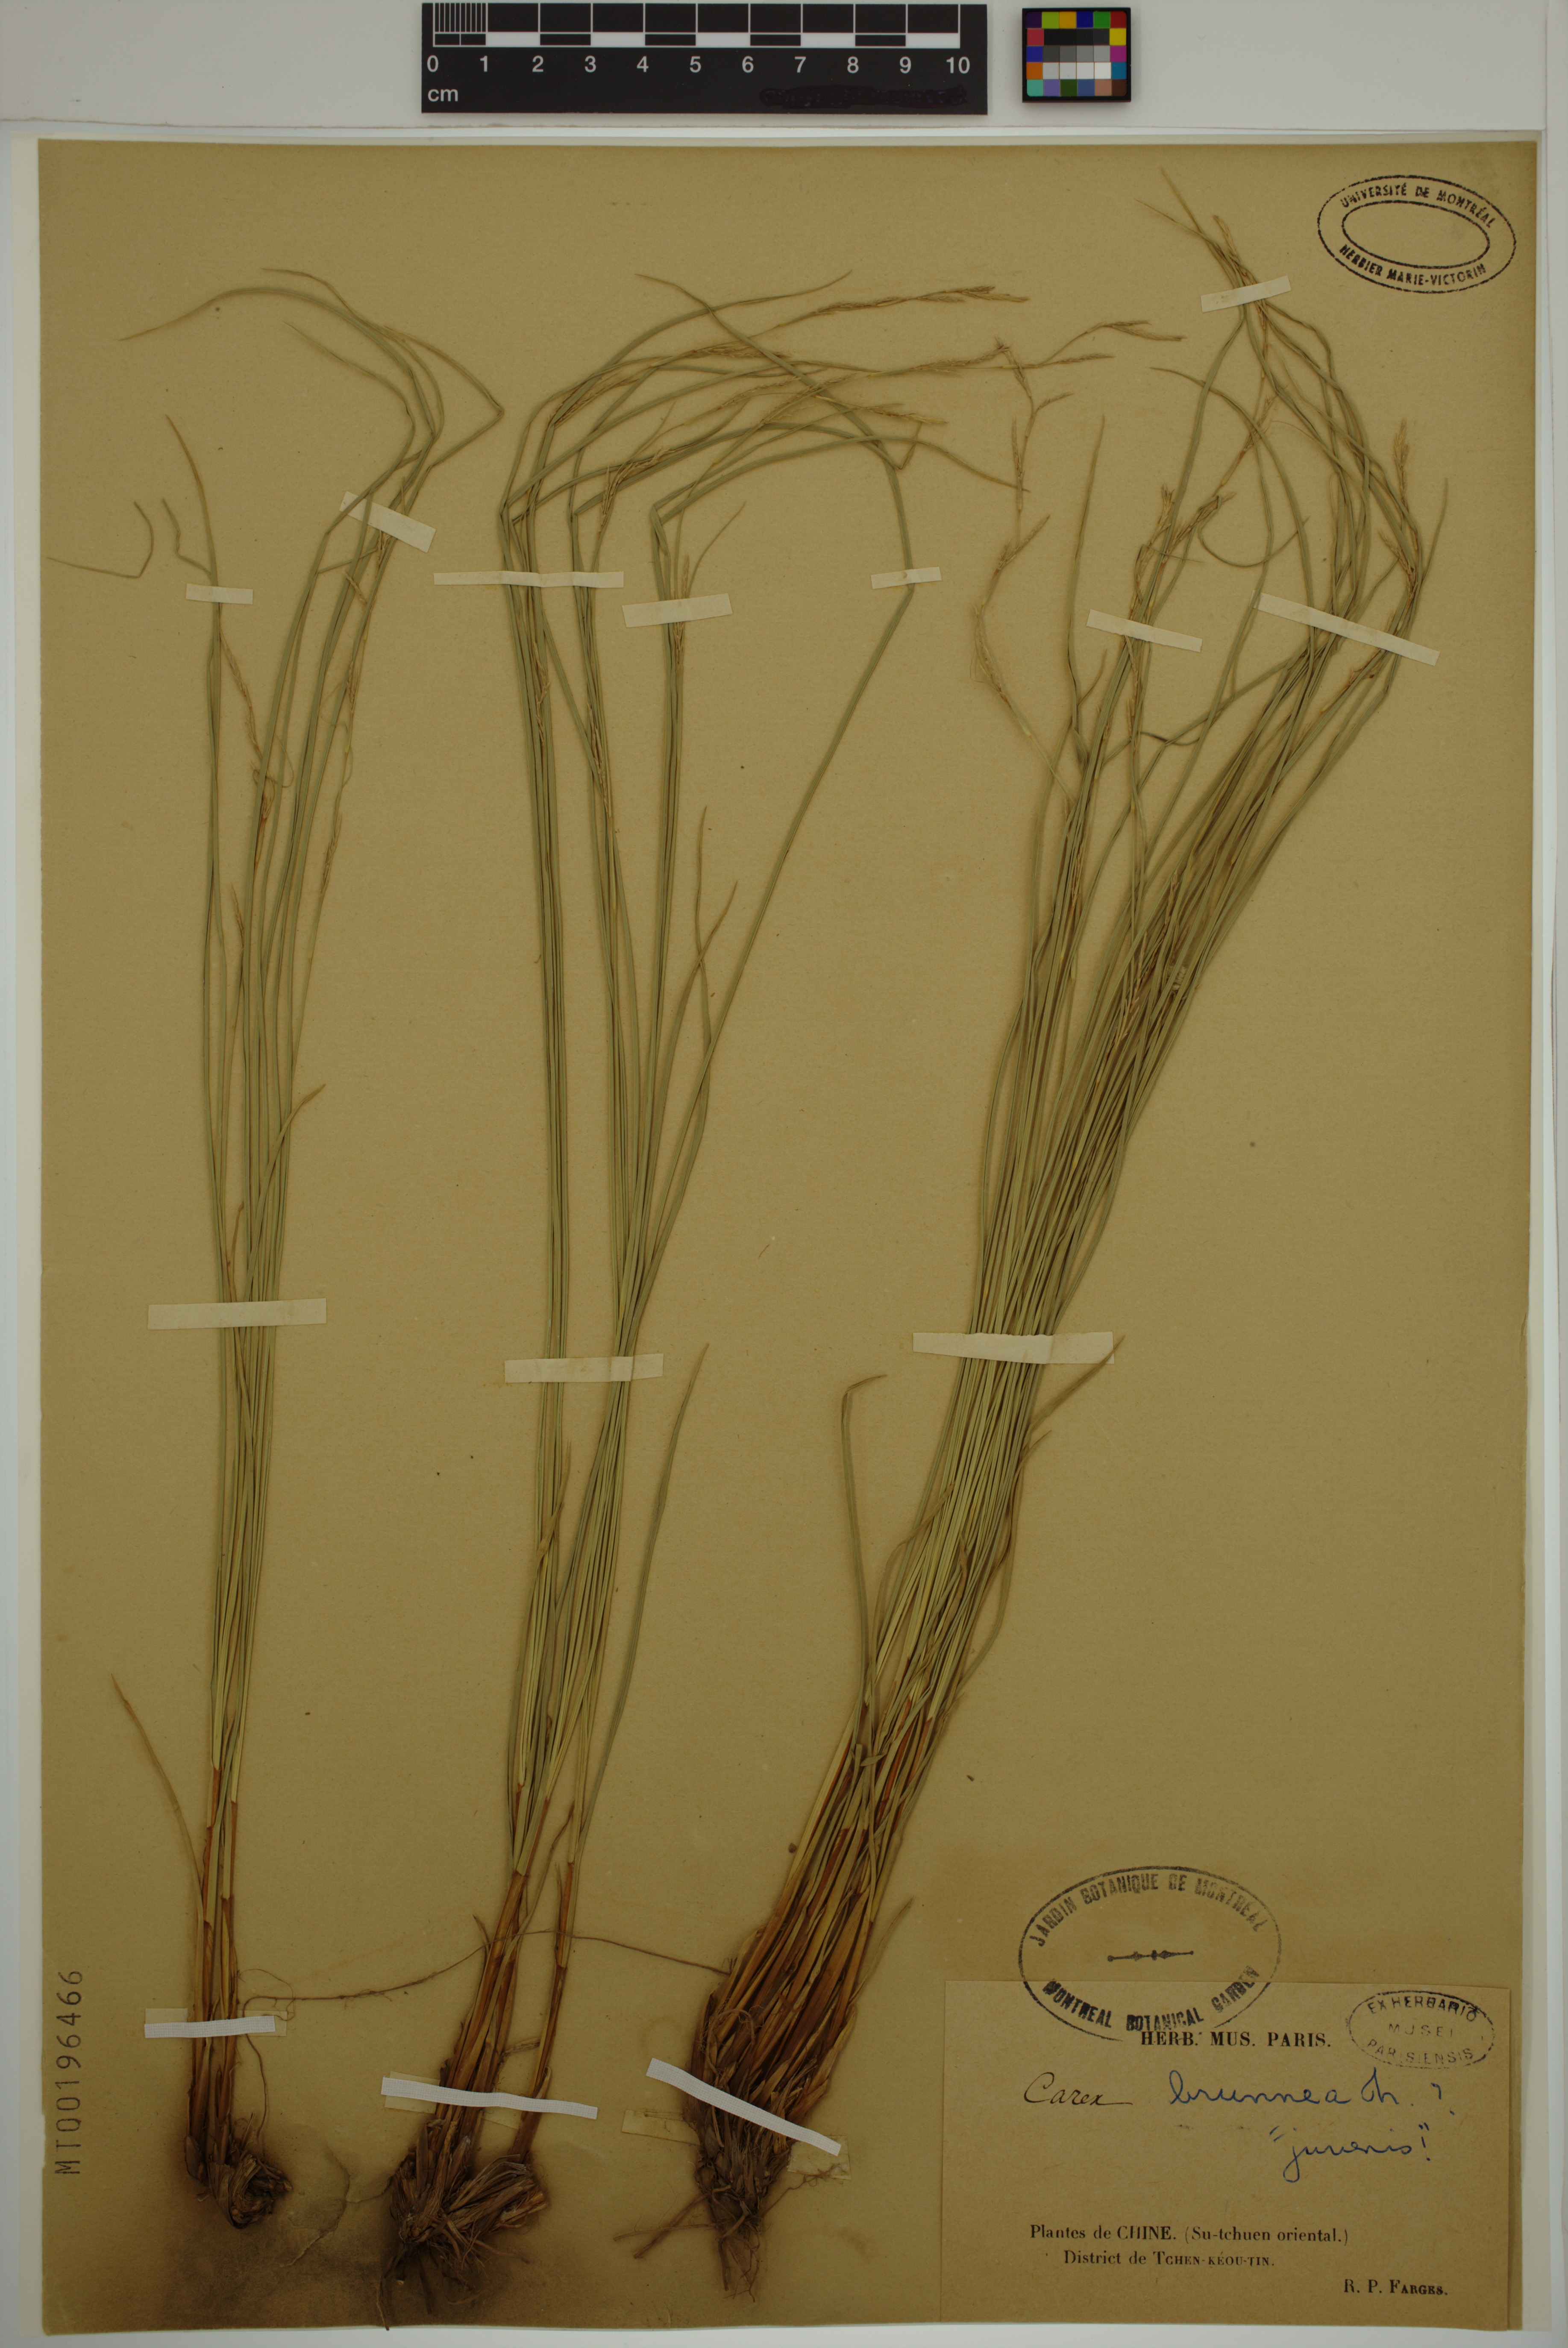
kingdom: Plantae
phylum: Tracheophyta
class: Liliopsida
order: Poales
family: Cyperaceae
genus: Carex
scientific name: Carex brunnea
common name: Greater brown sedge
